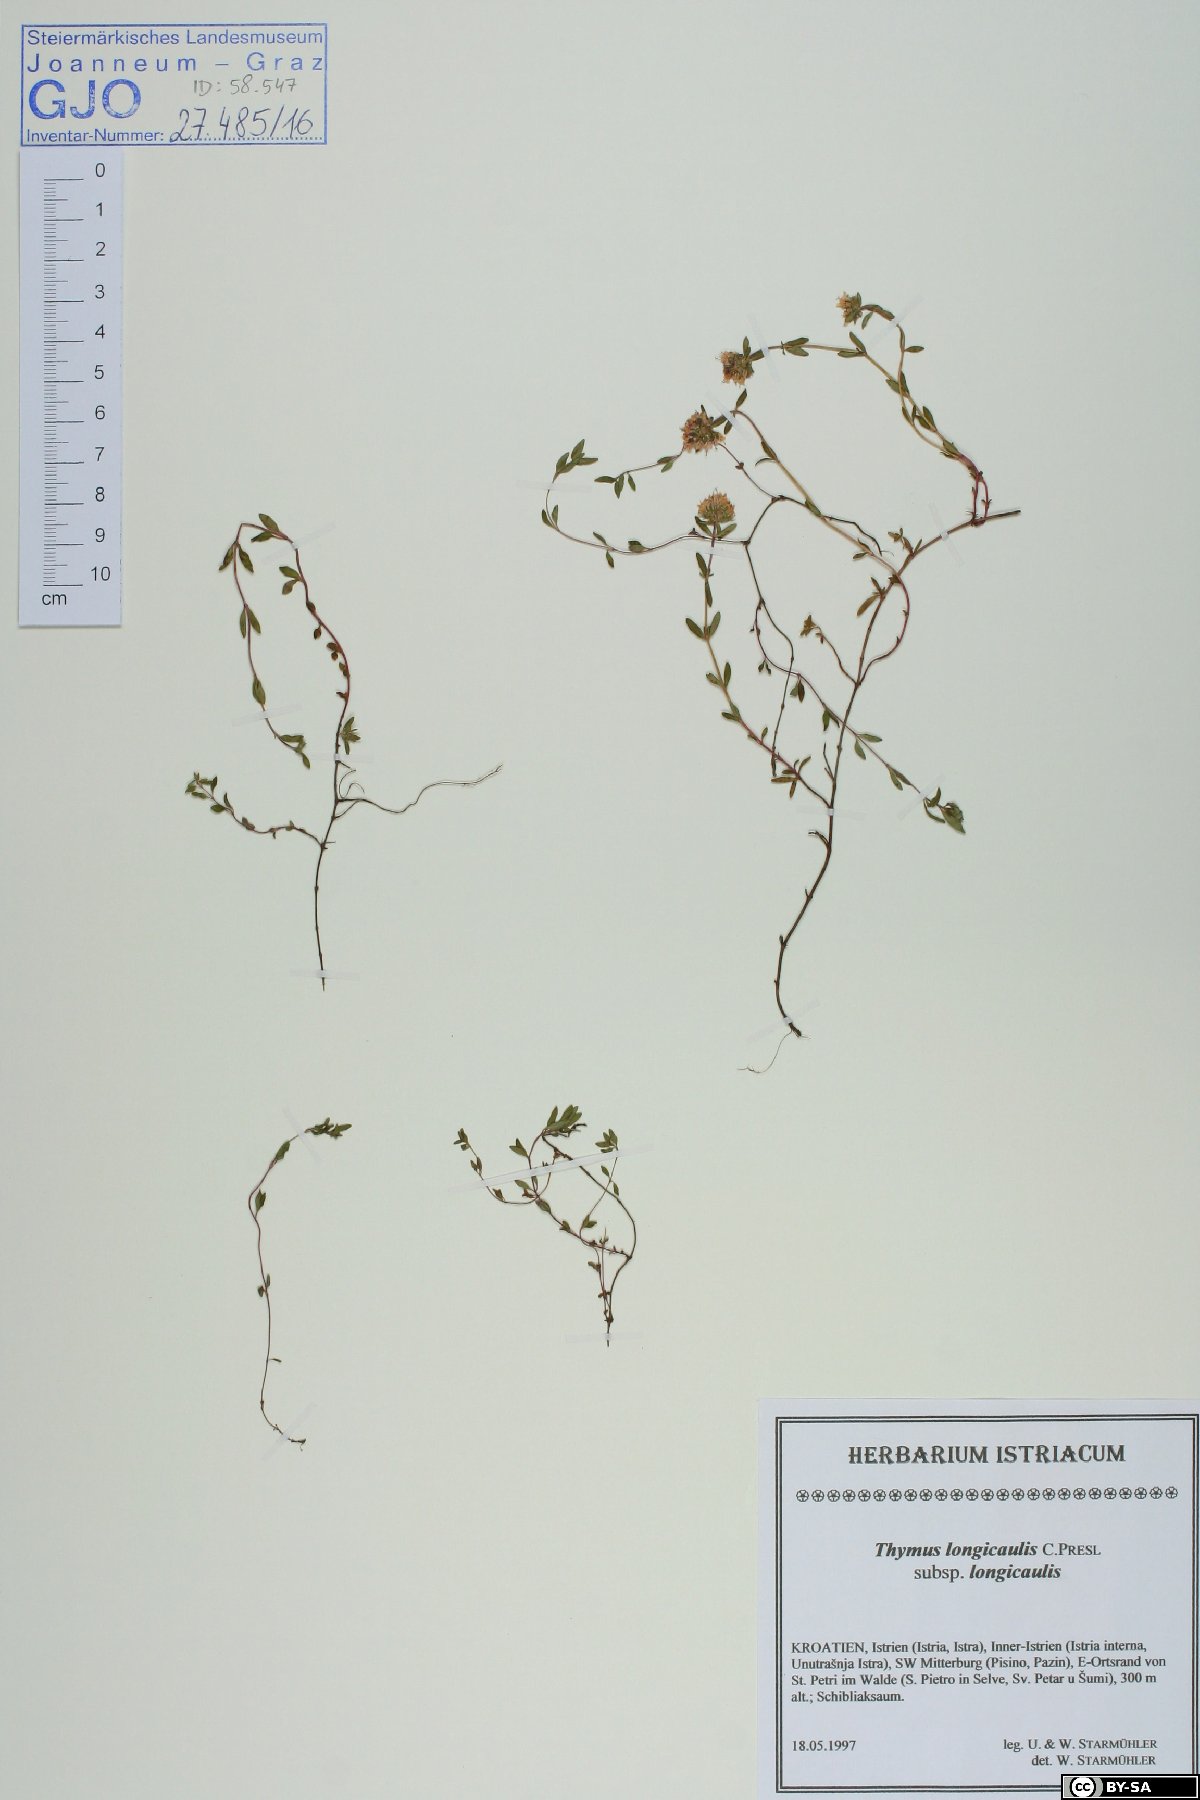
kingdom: Plantae
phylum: Tracheophyta
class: Magnoliopsida
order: Lamiales
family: Lamiaceae
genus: Thymus
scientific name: Thymus longicaulis
